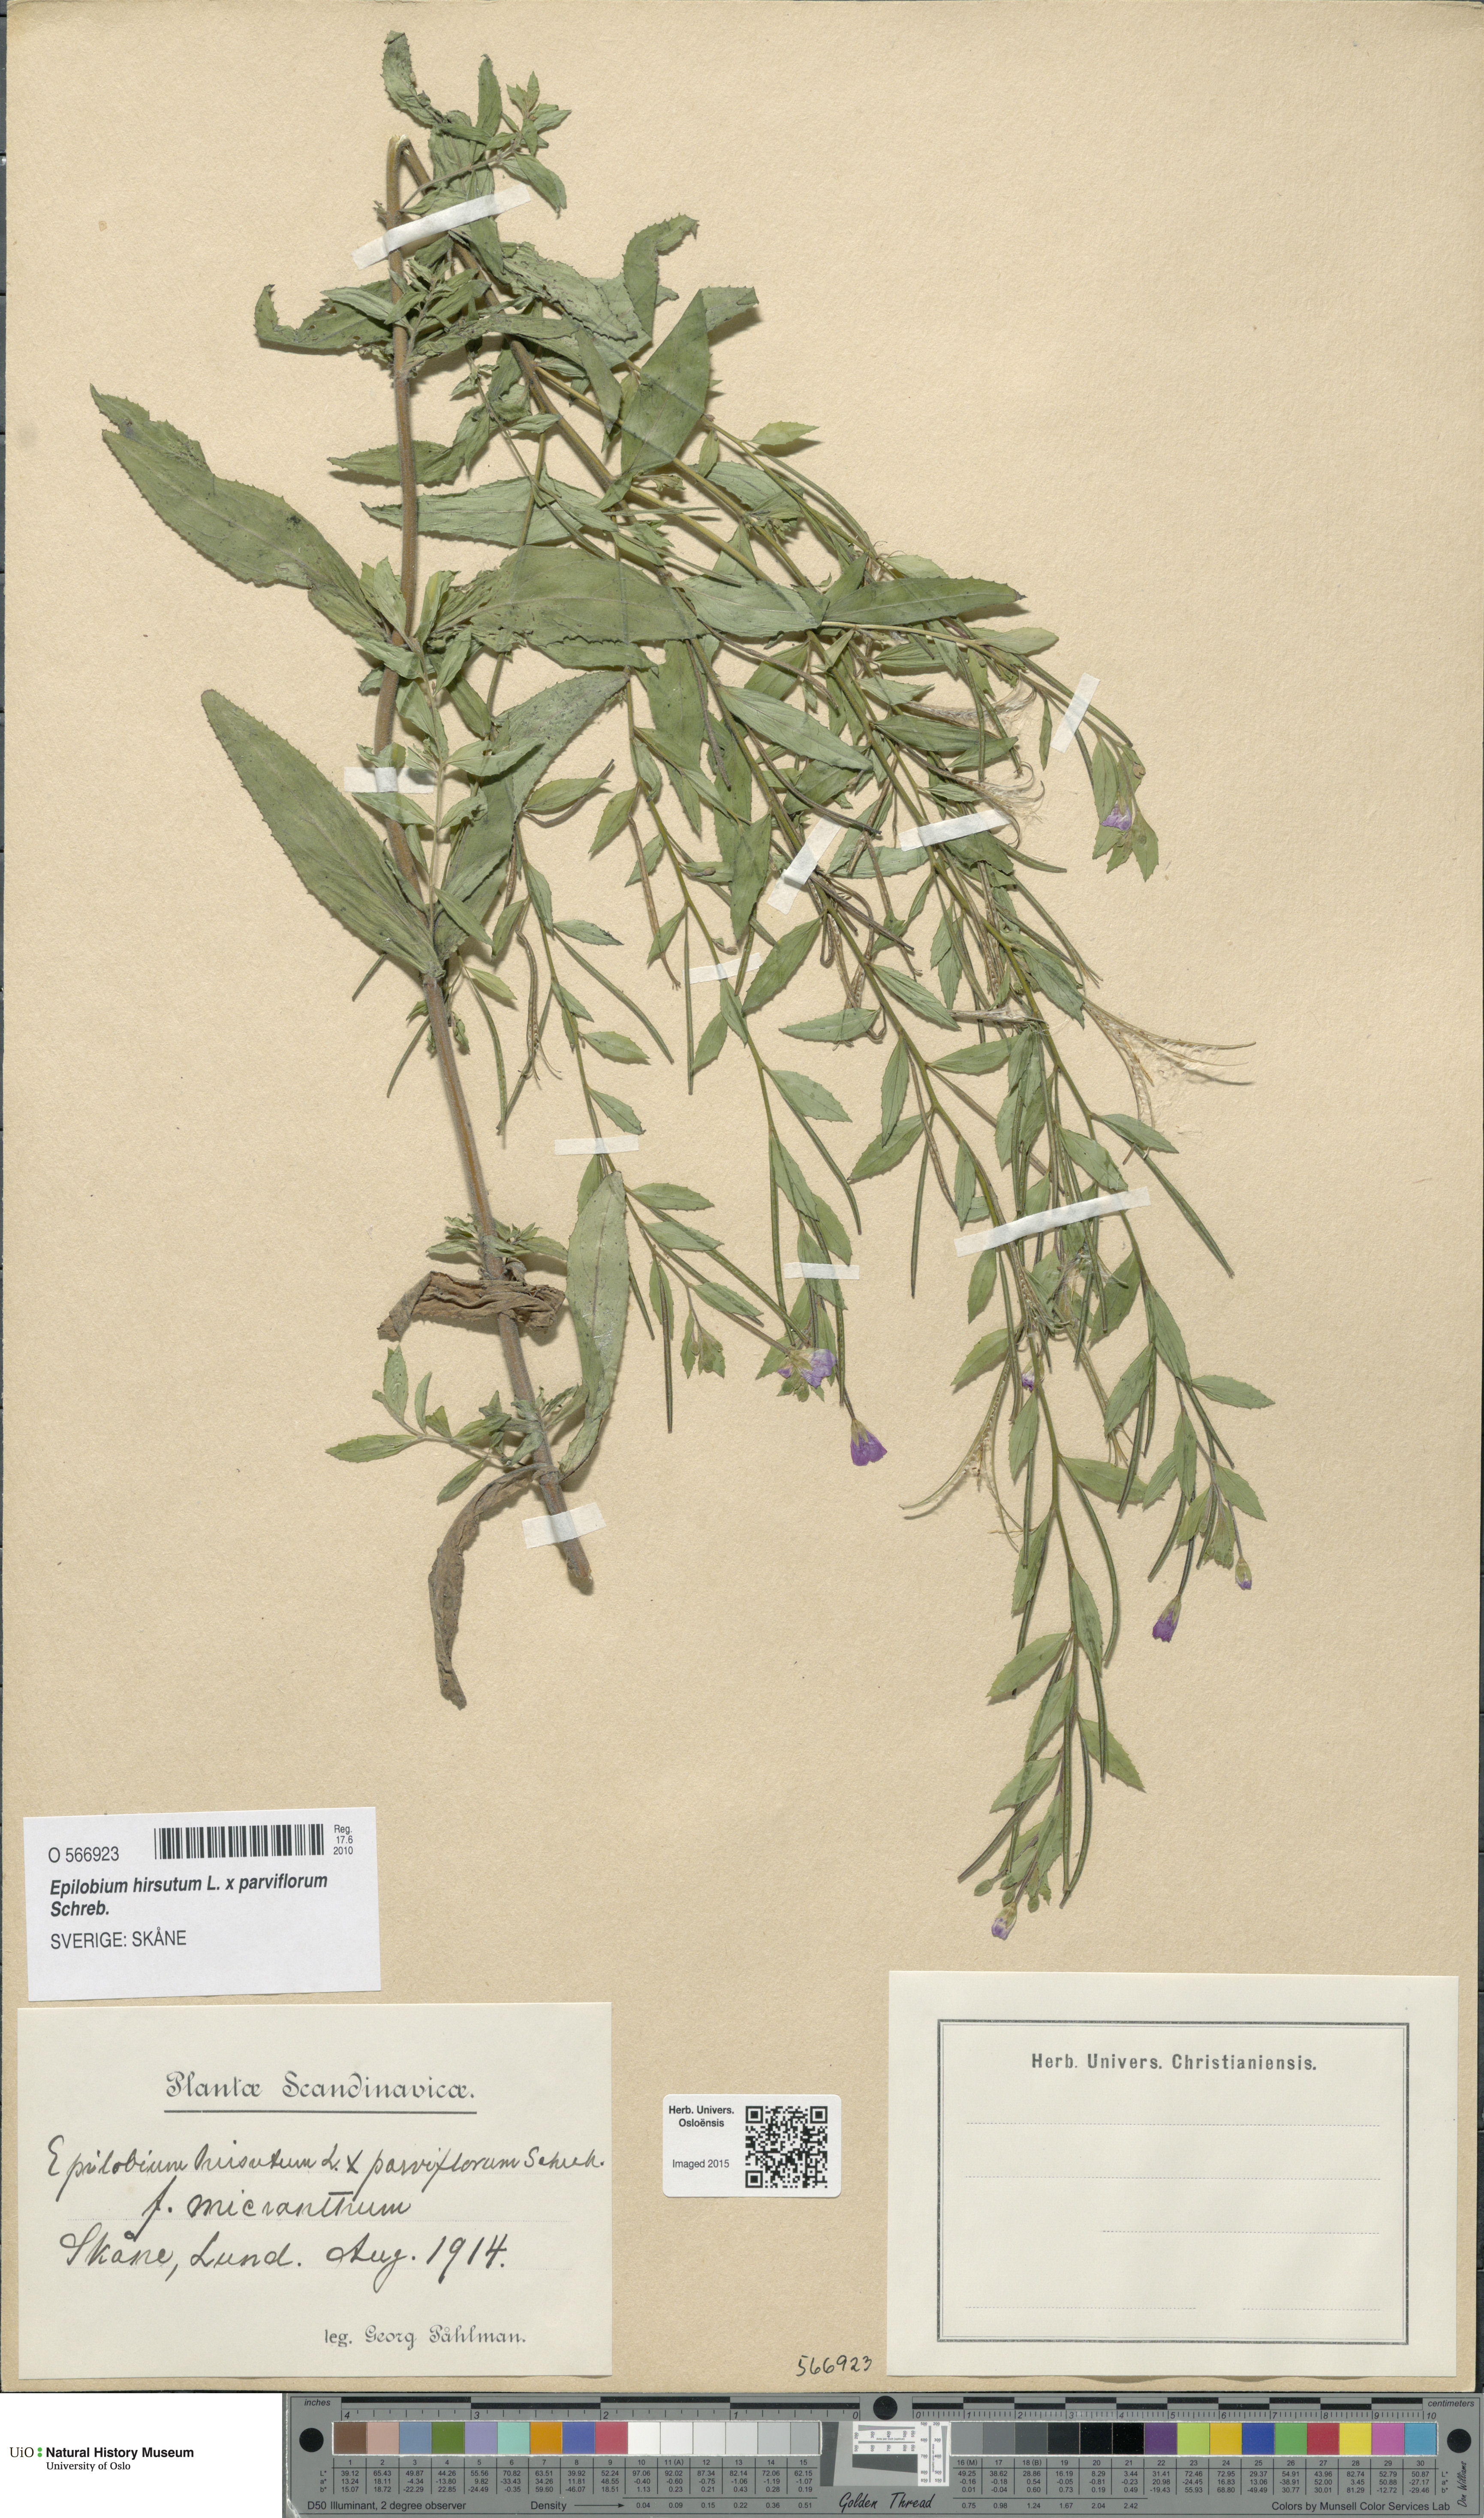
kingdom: Plantae
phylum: Tracheophyta
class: Magnoliopsida
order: Myrtales
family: Onagraceae
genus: Epilobium
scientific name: Epilobium
